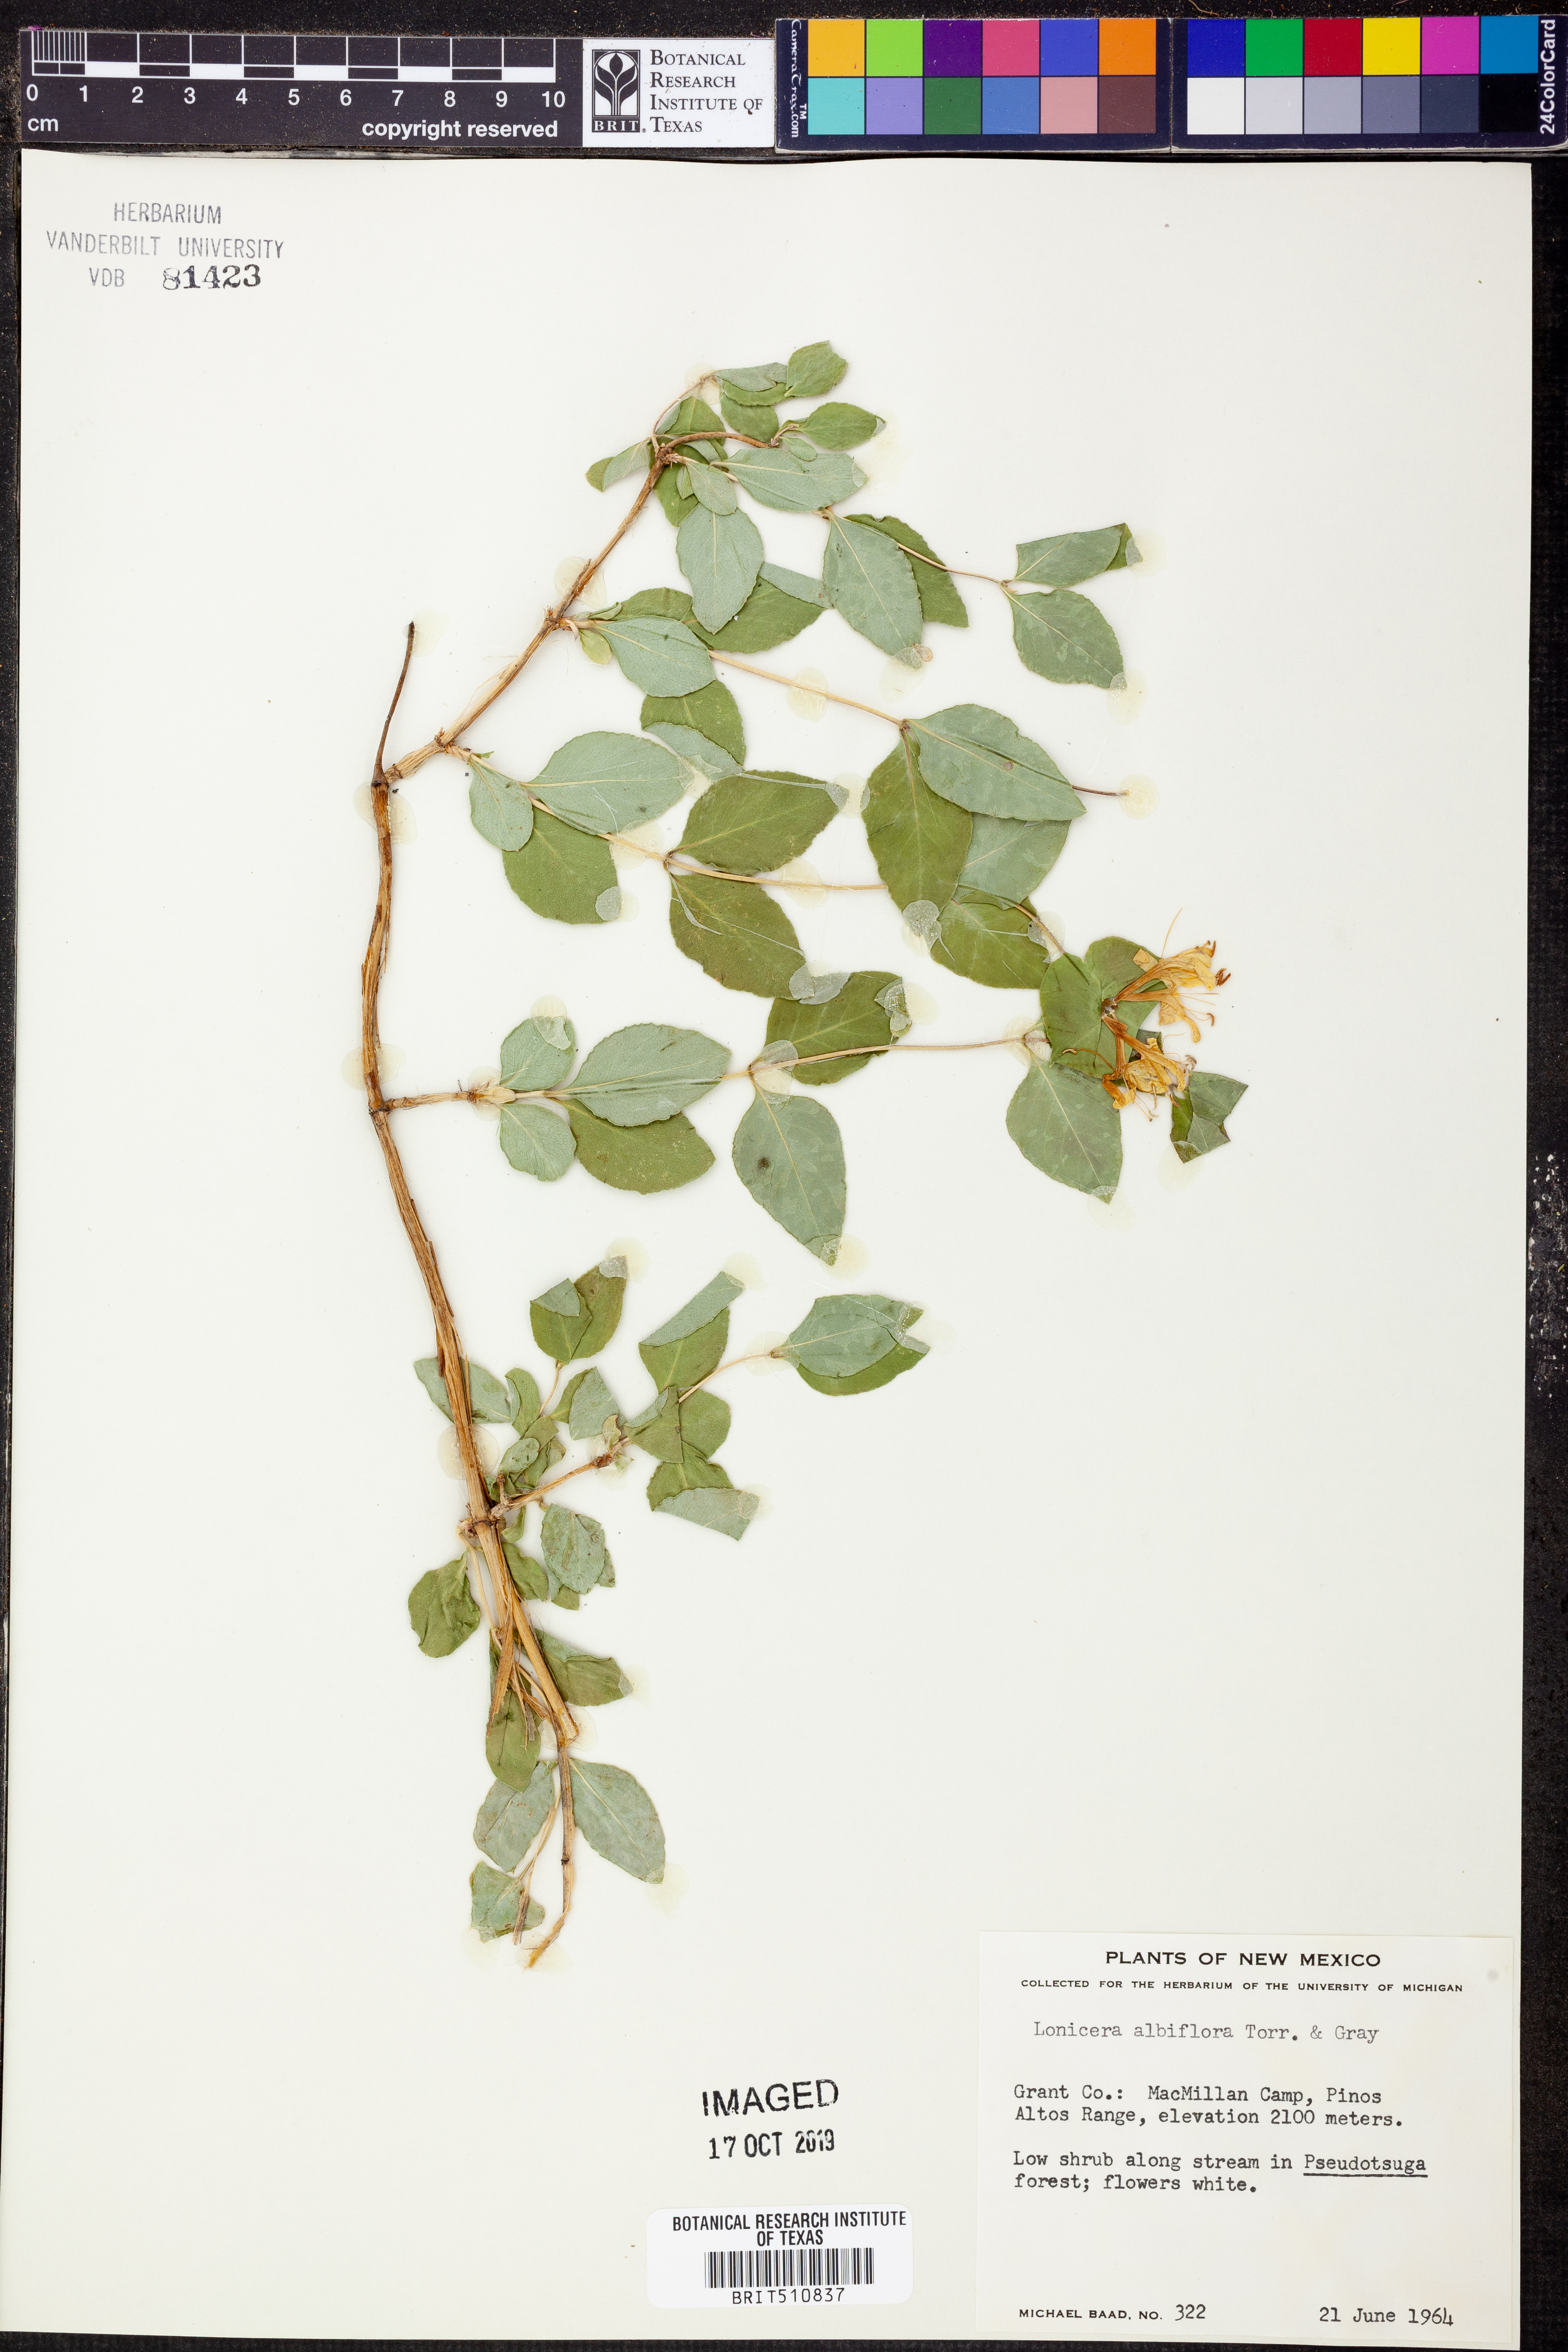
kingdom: Plantae
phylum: Tracheophyta
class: Magnoliopsida
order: Dipsacales
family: Caprifoliaceae
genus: Lonicera
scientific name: Lonicera albiflora
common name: White honeysuckle
